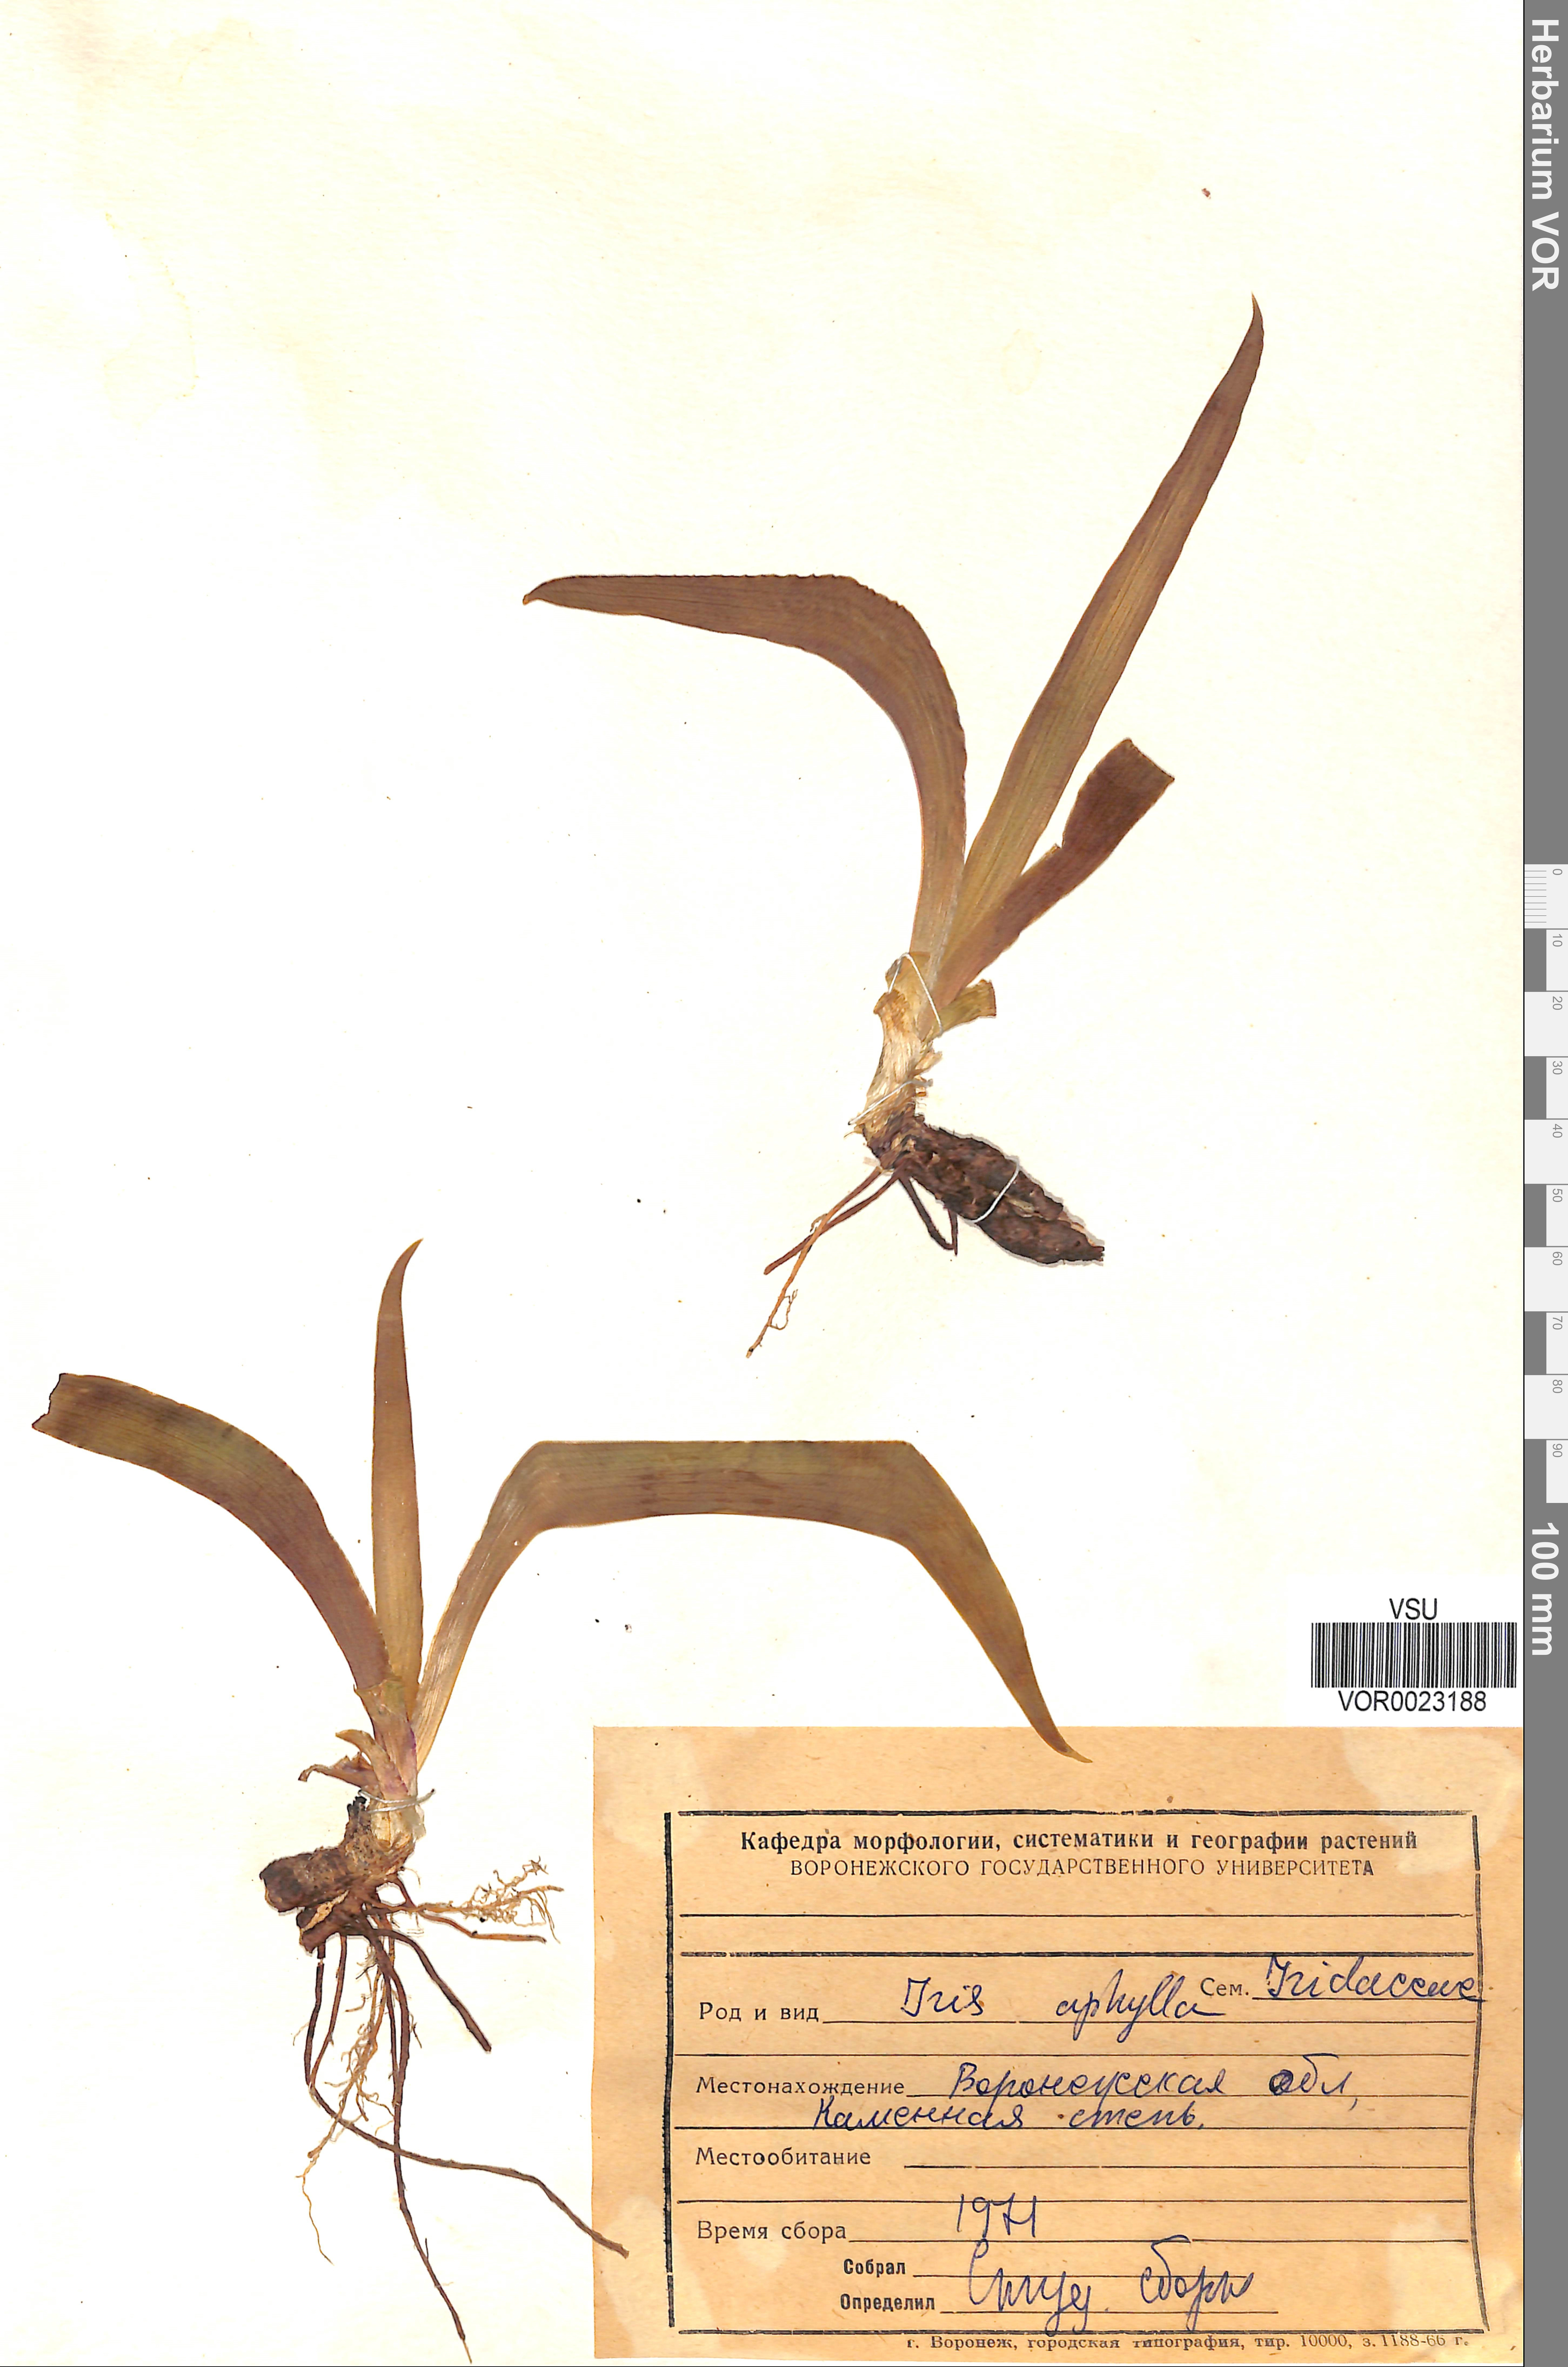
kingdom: Plantae
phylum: Tracheophyta
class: Liliopsida
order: Asparagales
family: Iridaceae
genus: Iris
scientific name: Iris aphylla
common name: Stool iris
